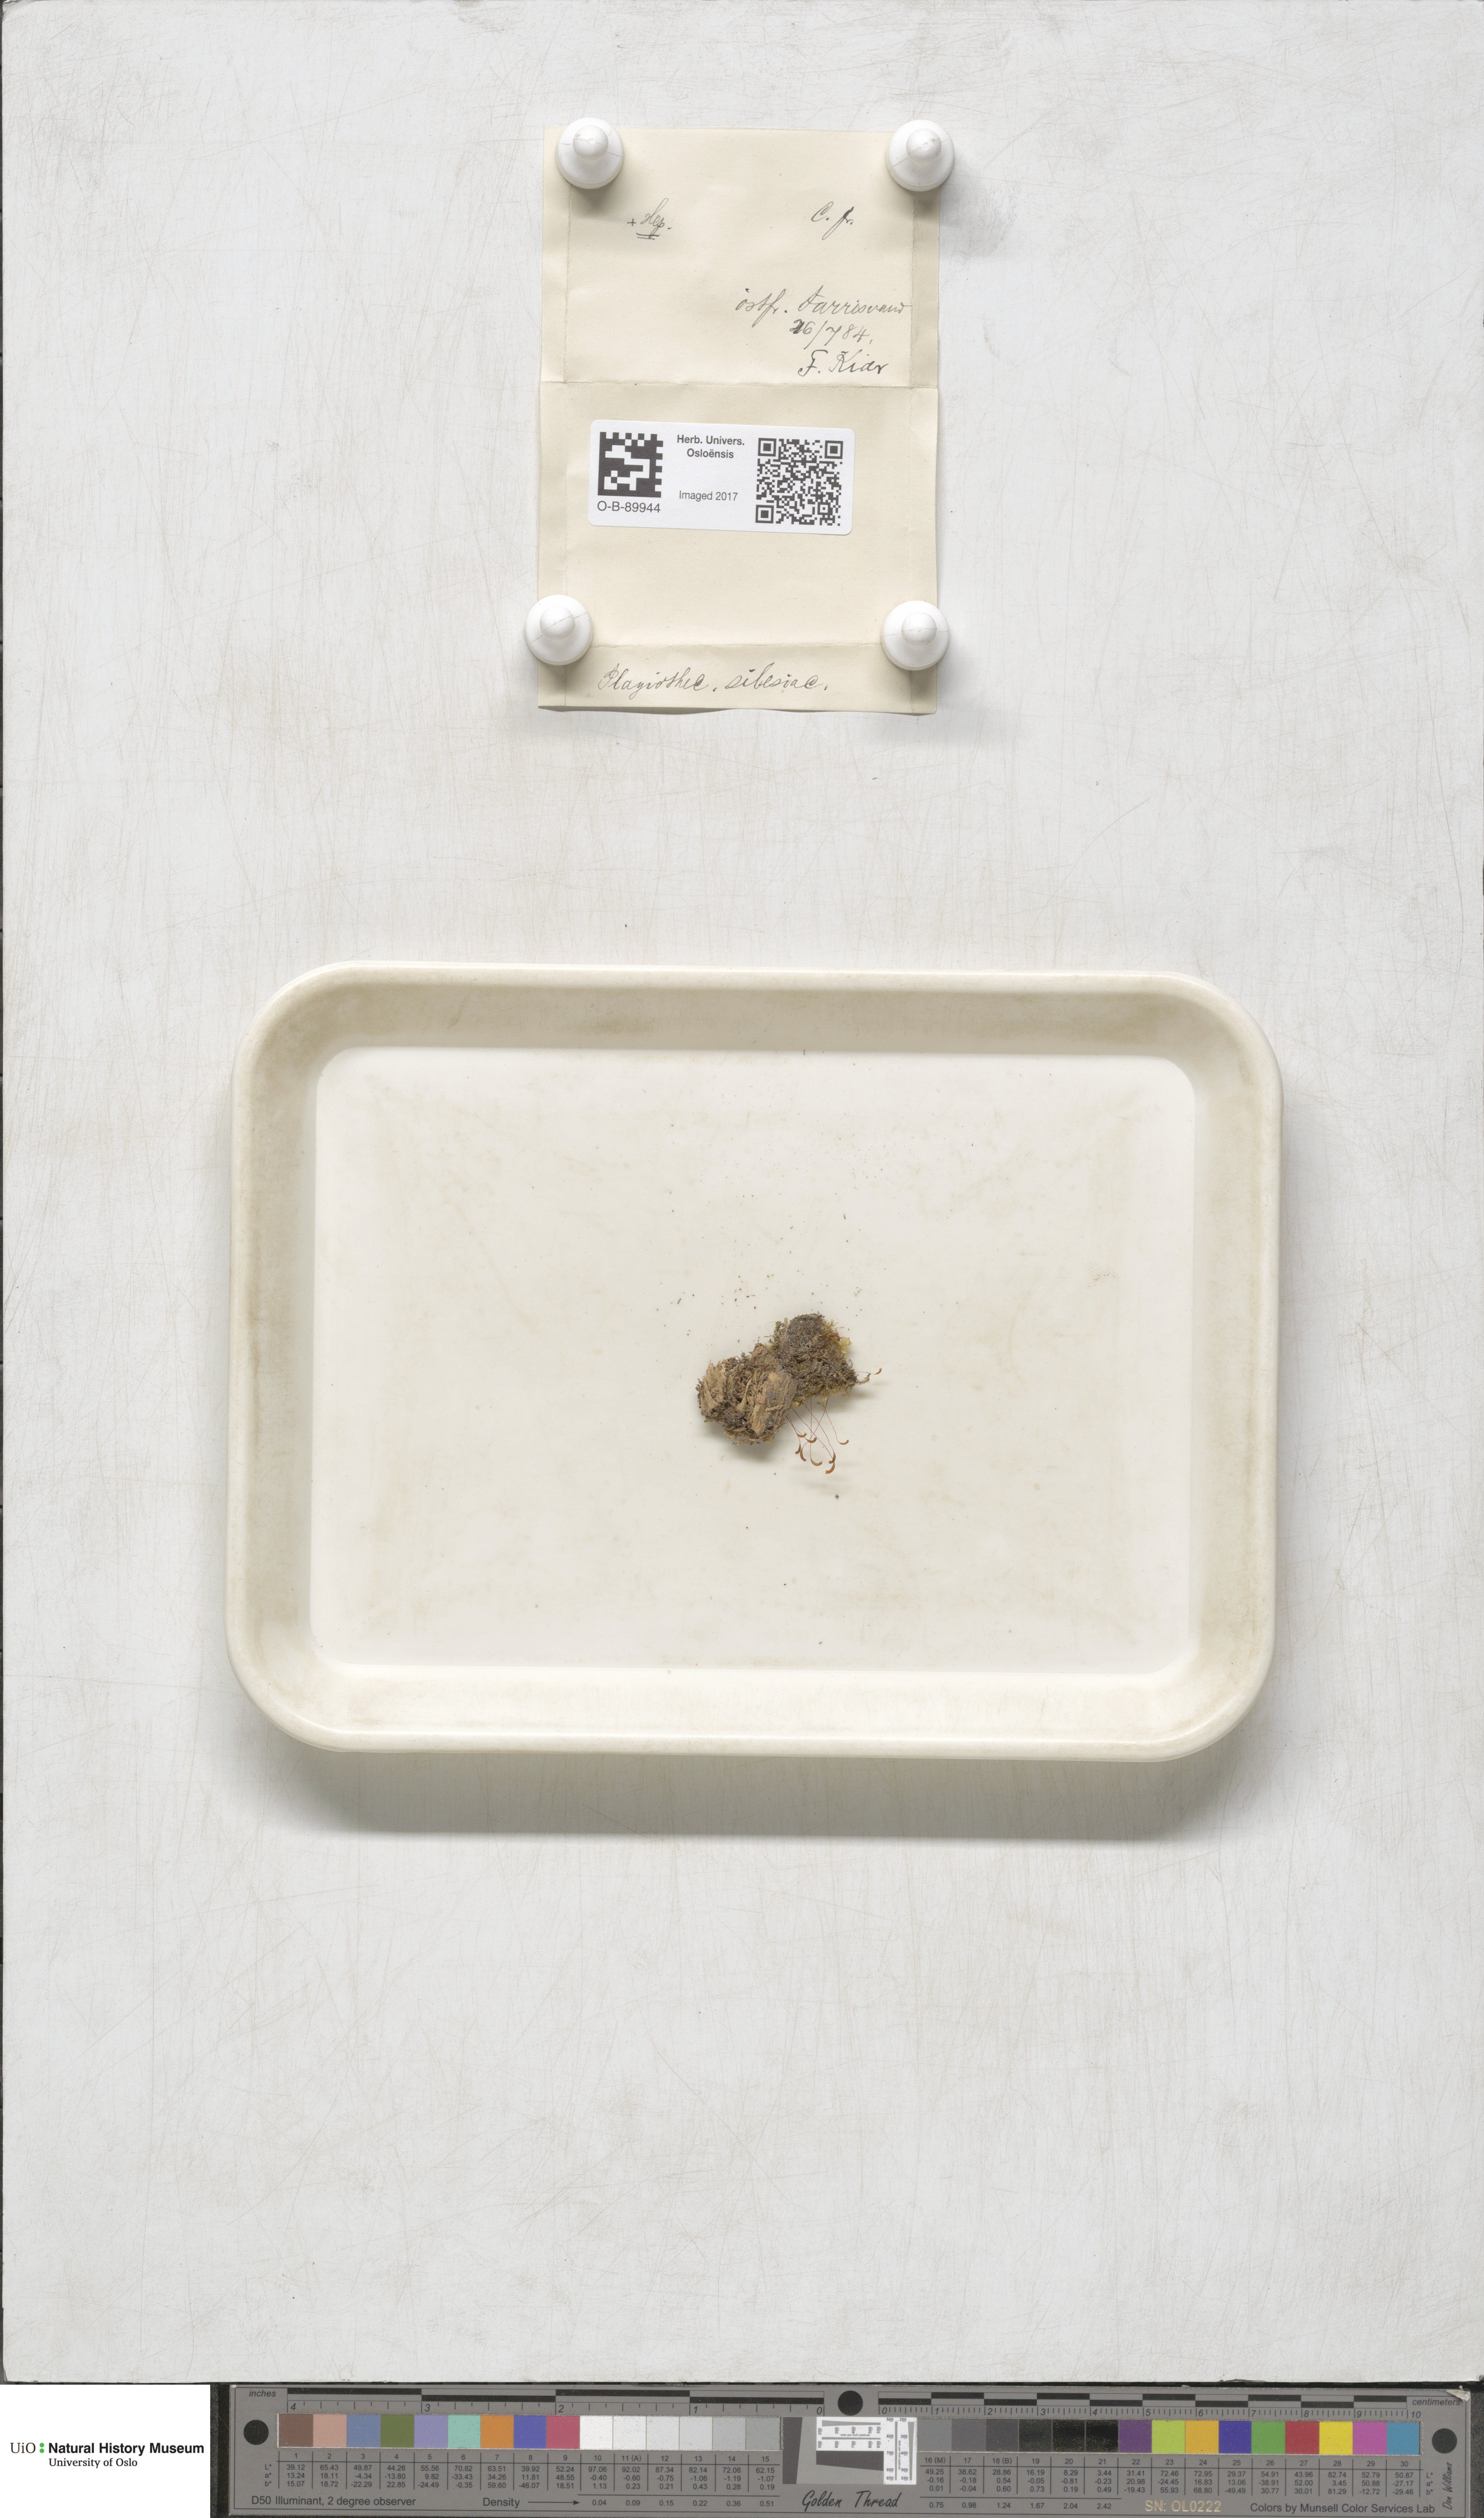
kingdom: Plantae
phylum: Bryophyta
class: Bryopsida
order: Hypnales
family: Plagiotheciaceae
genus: Herzogiella
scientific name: Herzogiella seligeri
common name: Silesian feather-moss
